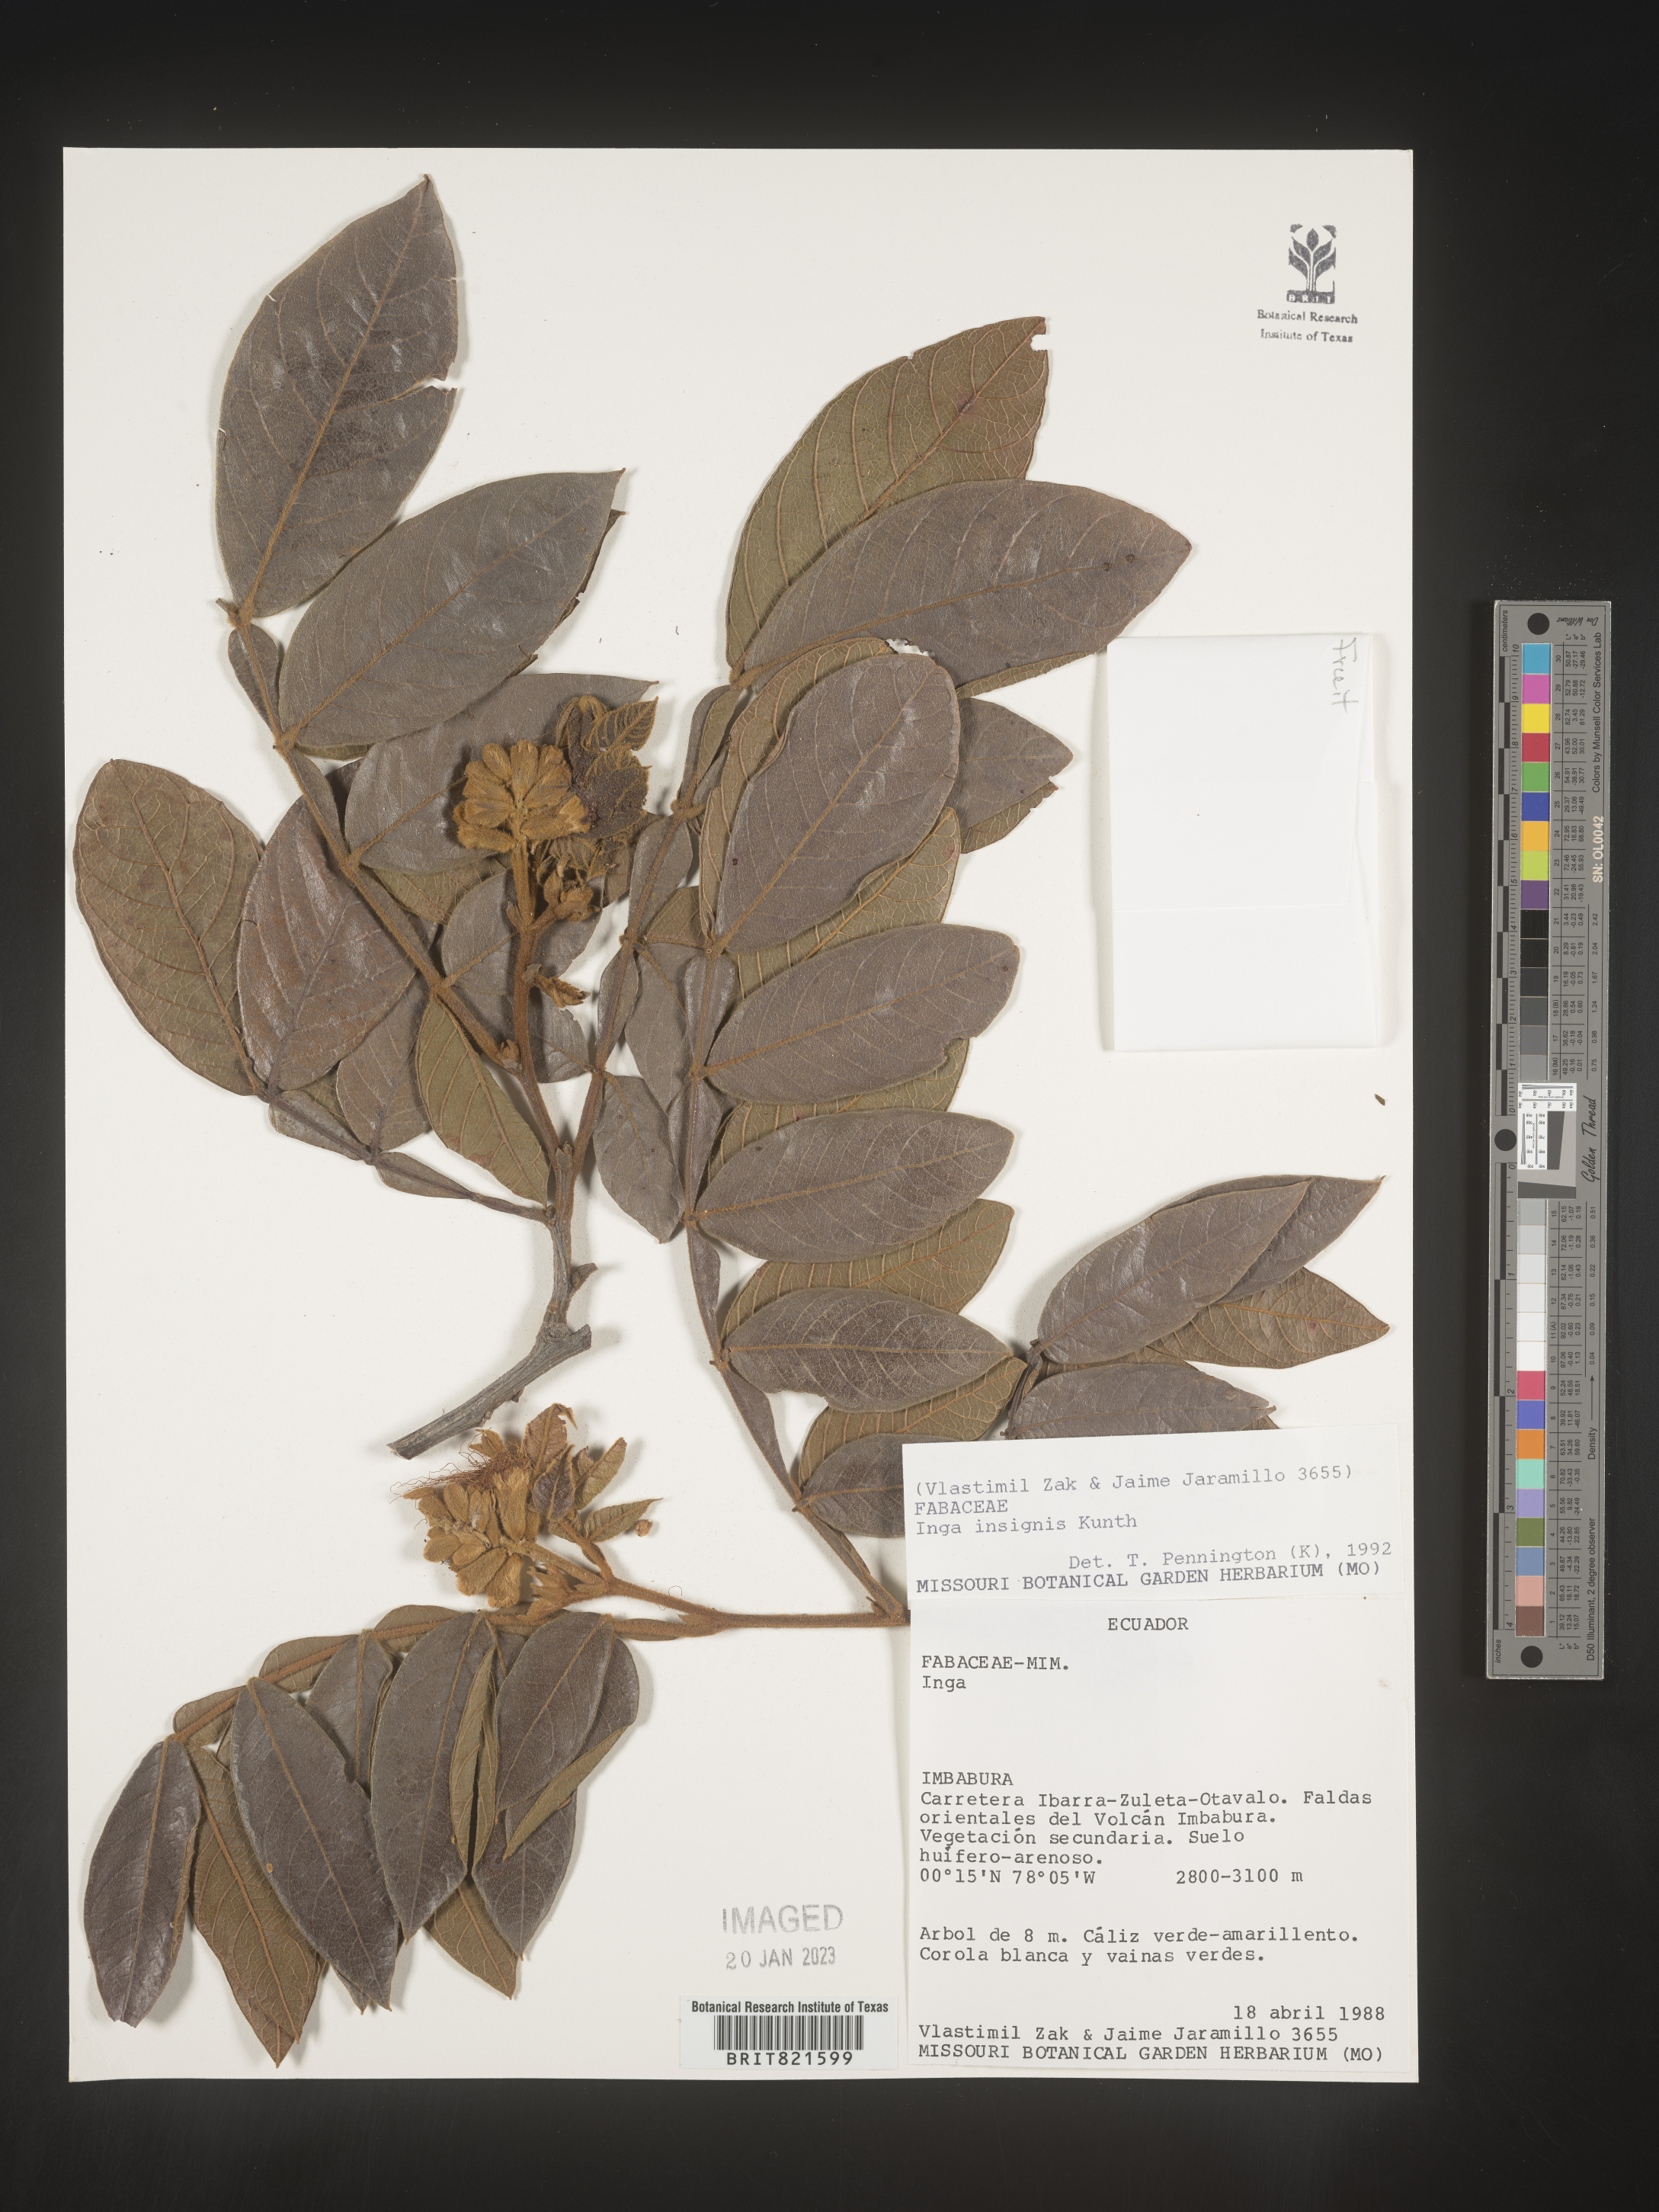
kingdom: Plantae
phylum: Tracheophyta
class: Magnoliopsida
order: Fabales
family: Fabaceae
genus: Inga
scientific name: Inga
